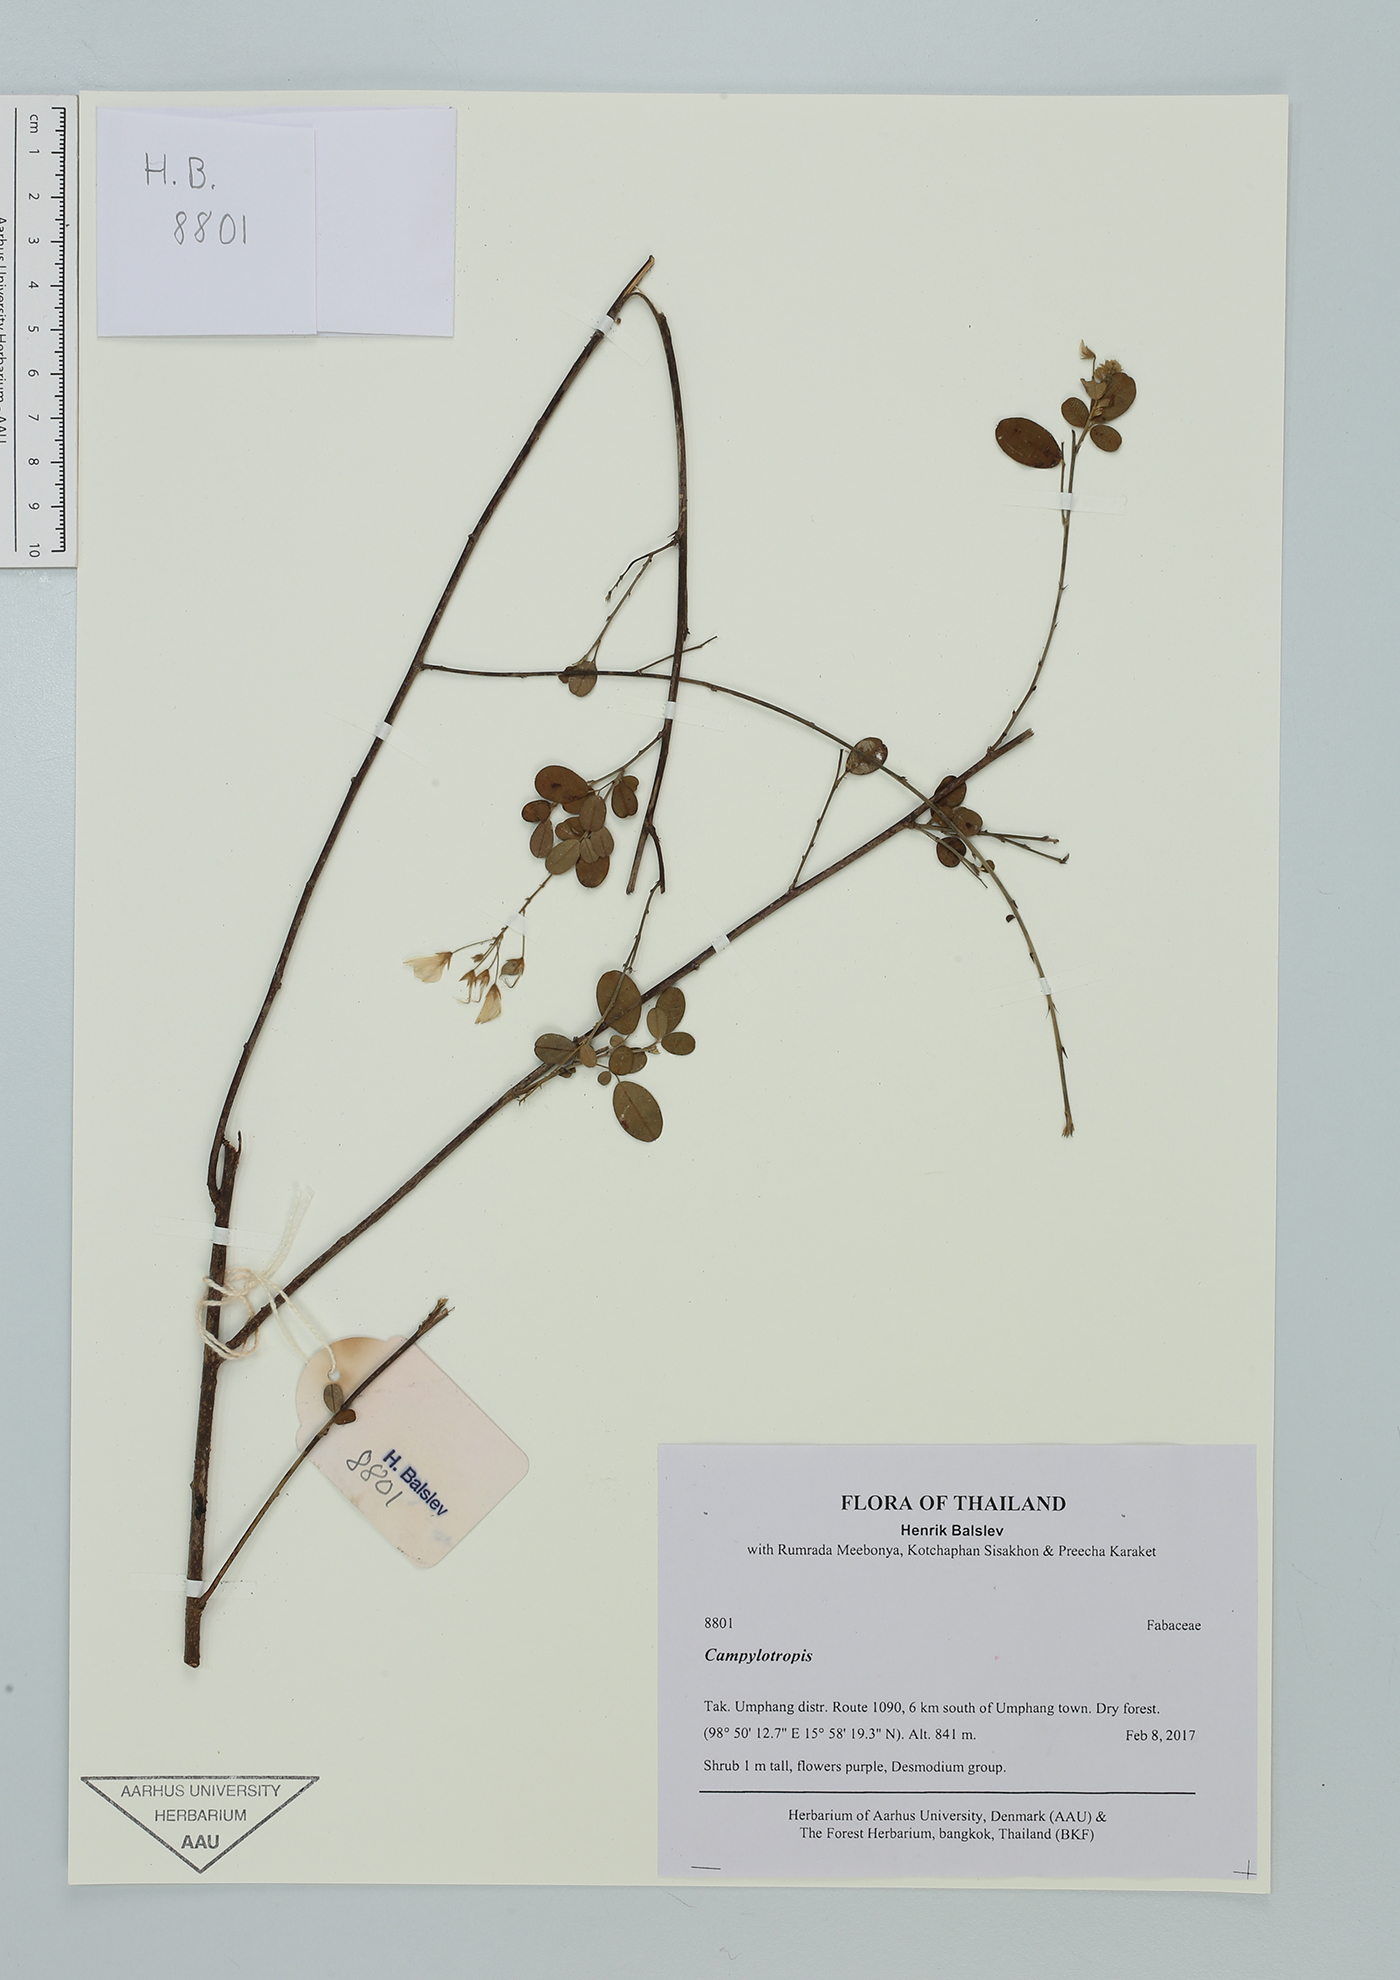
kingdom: Plantae
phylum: Tracheophyta
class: Magnoliopsida
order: Fabales
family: Fabaceae
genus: Campylotropis
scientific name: Campylotropis
